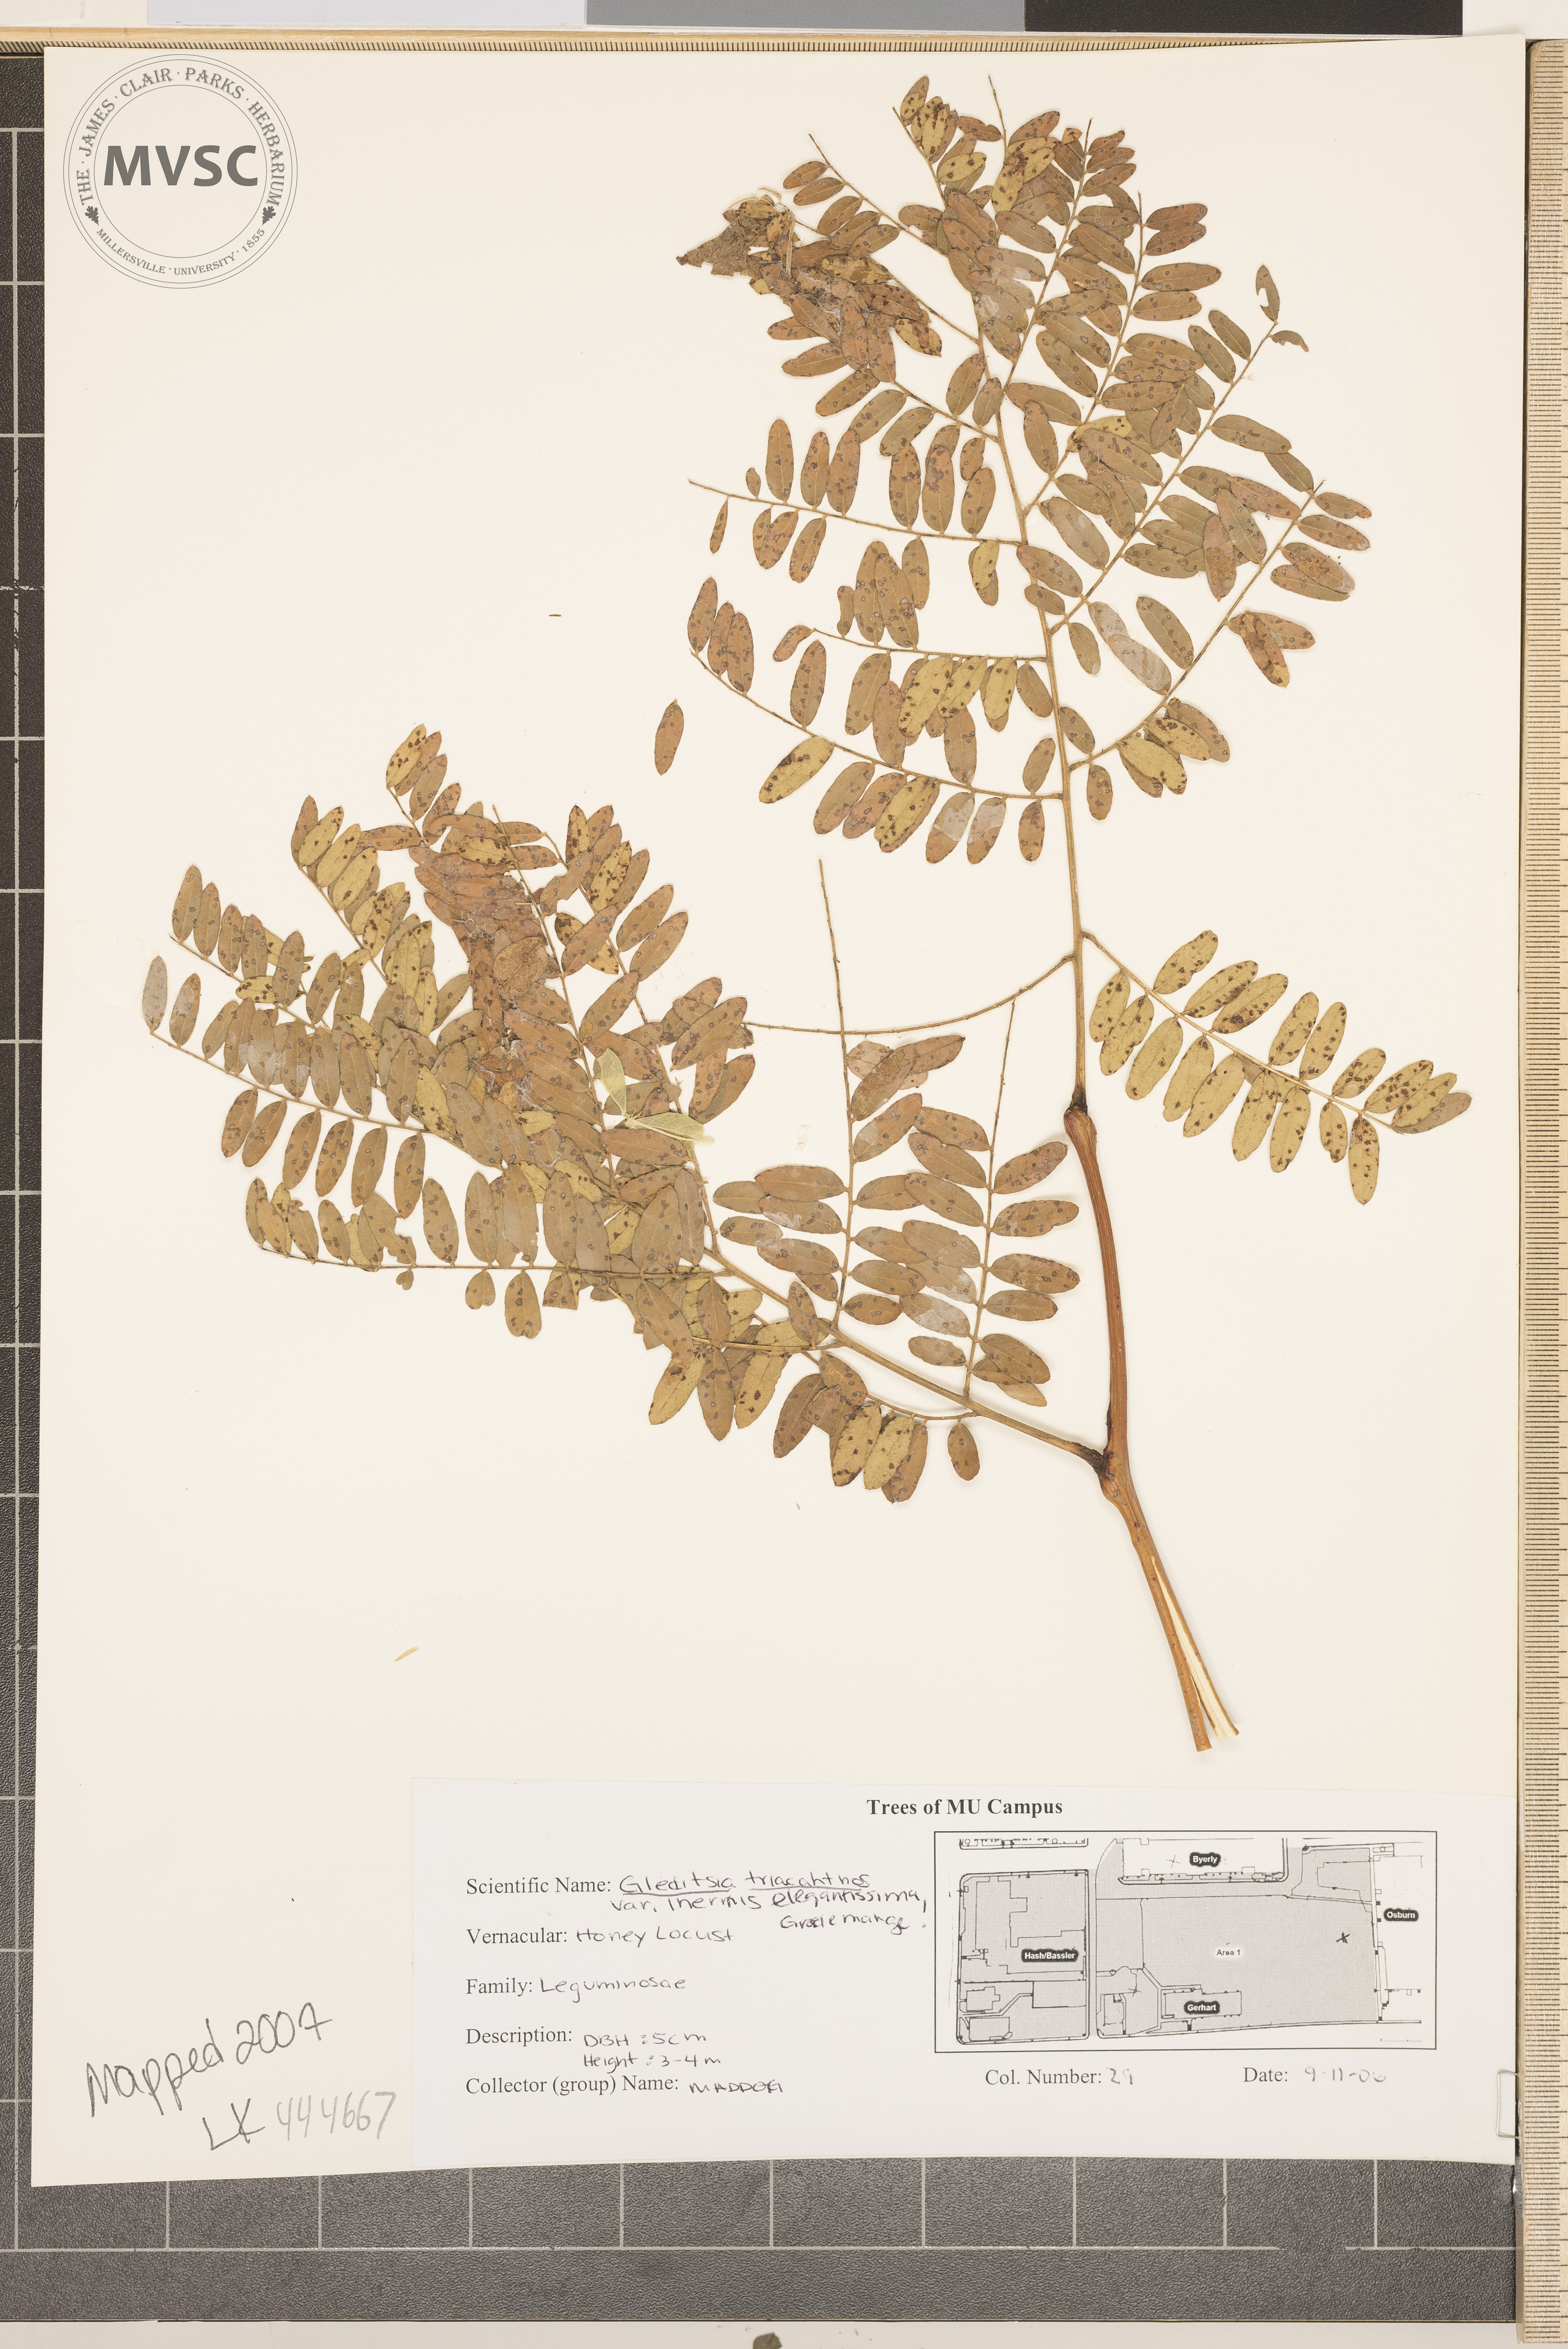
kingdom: Plantae
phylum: Tracheophyta
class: Magnoliopsida
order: Fabales
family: Fabaceae
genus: Gleditsia
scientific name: Gleditsia triacanthos
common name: Common honeylocust
